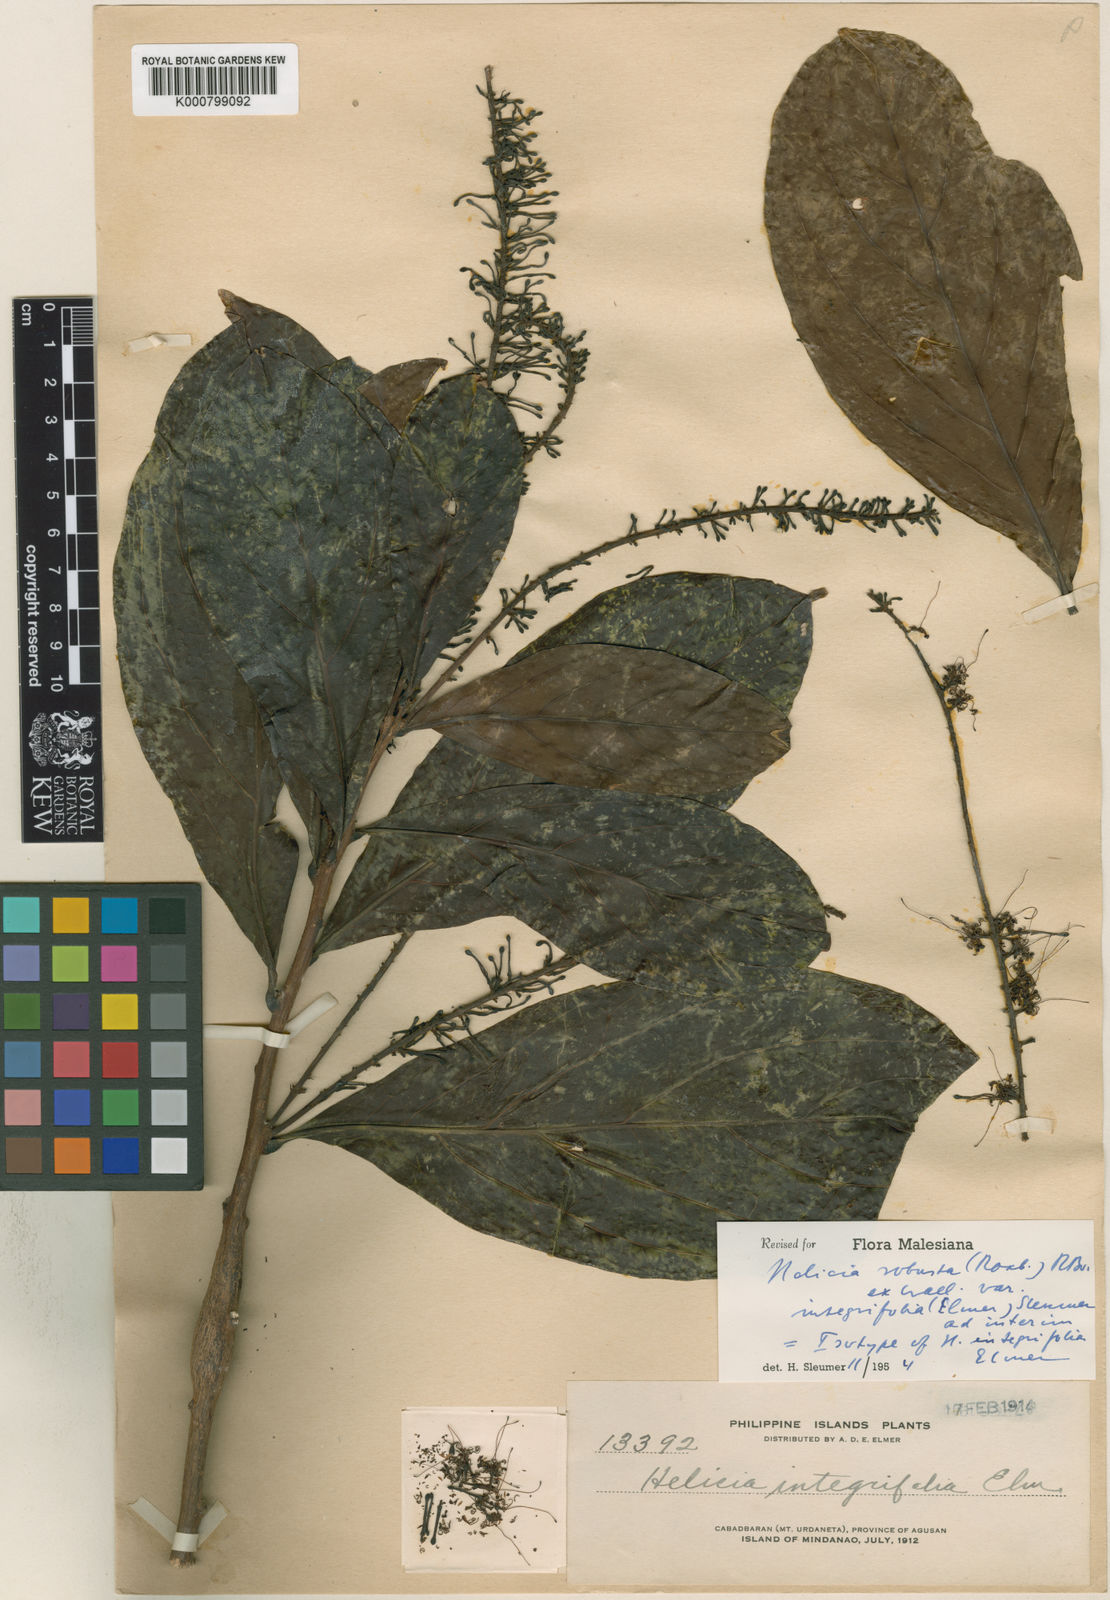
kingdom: Plantae
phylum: Tracheophyta
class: Magnoliopsida
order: Proteales
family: Proteaceae
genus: Helicia
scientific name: Helicia
